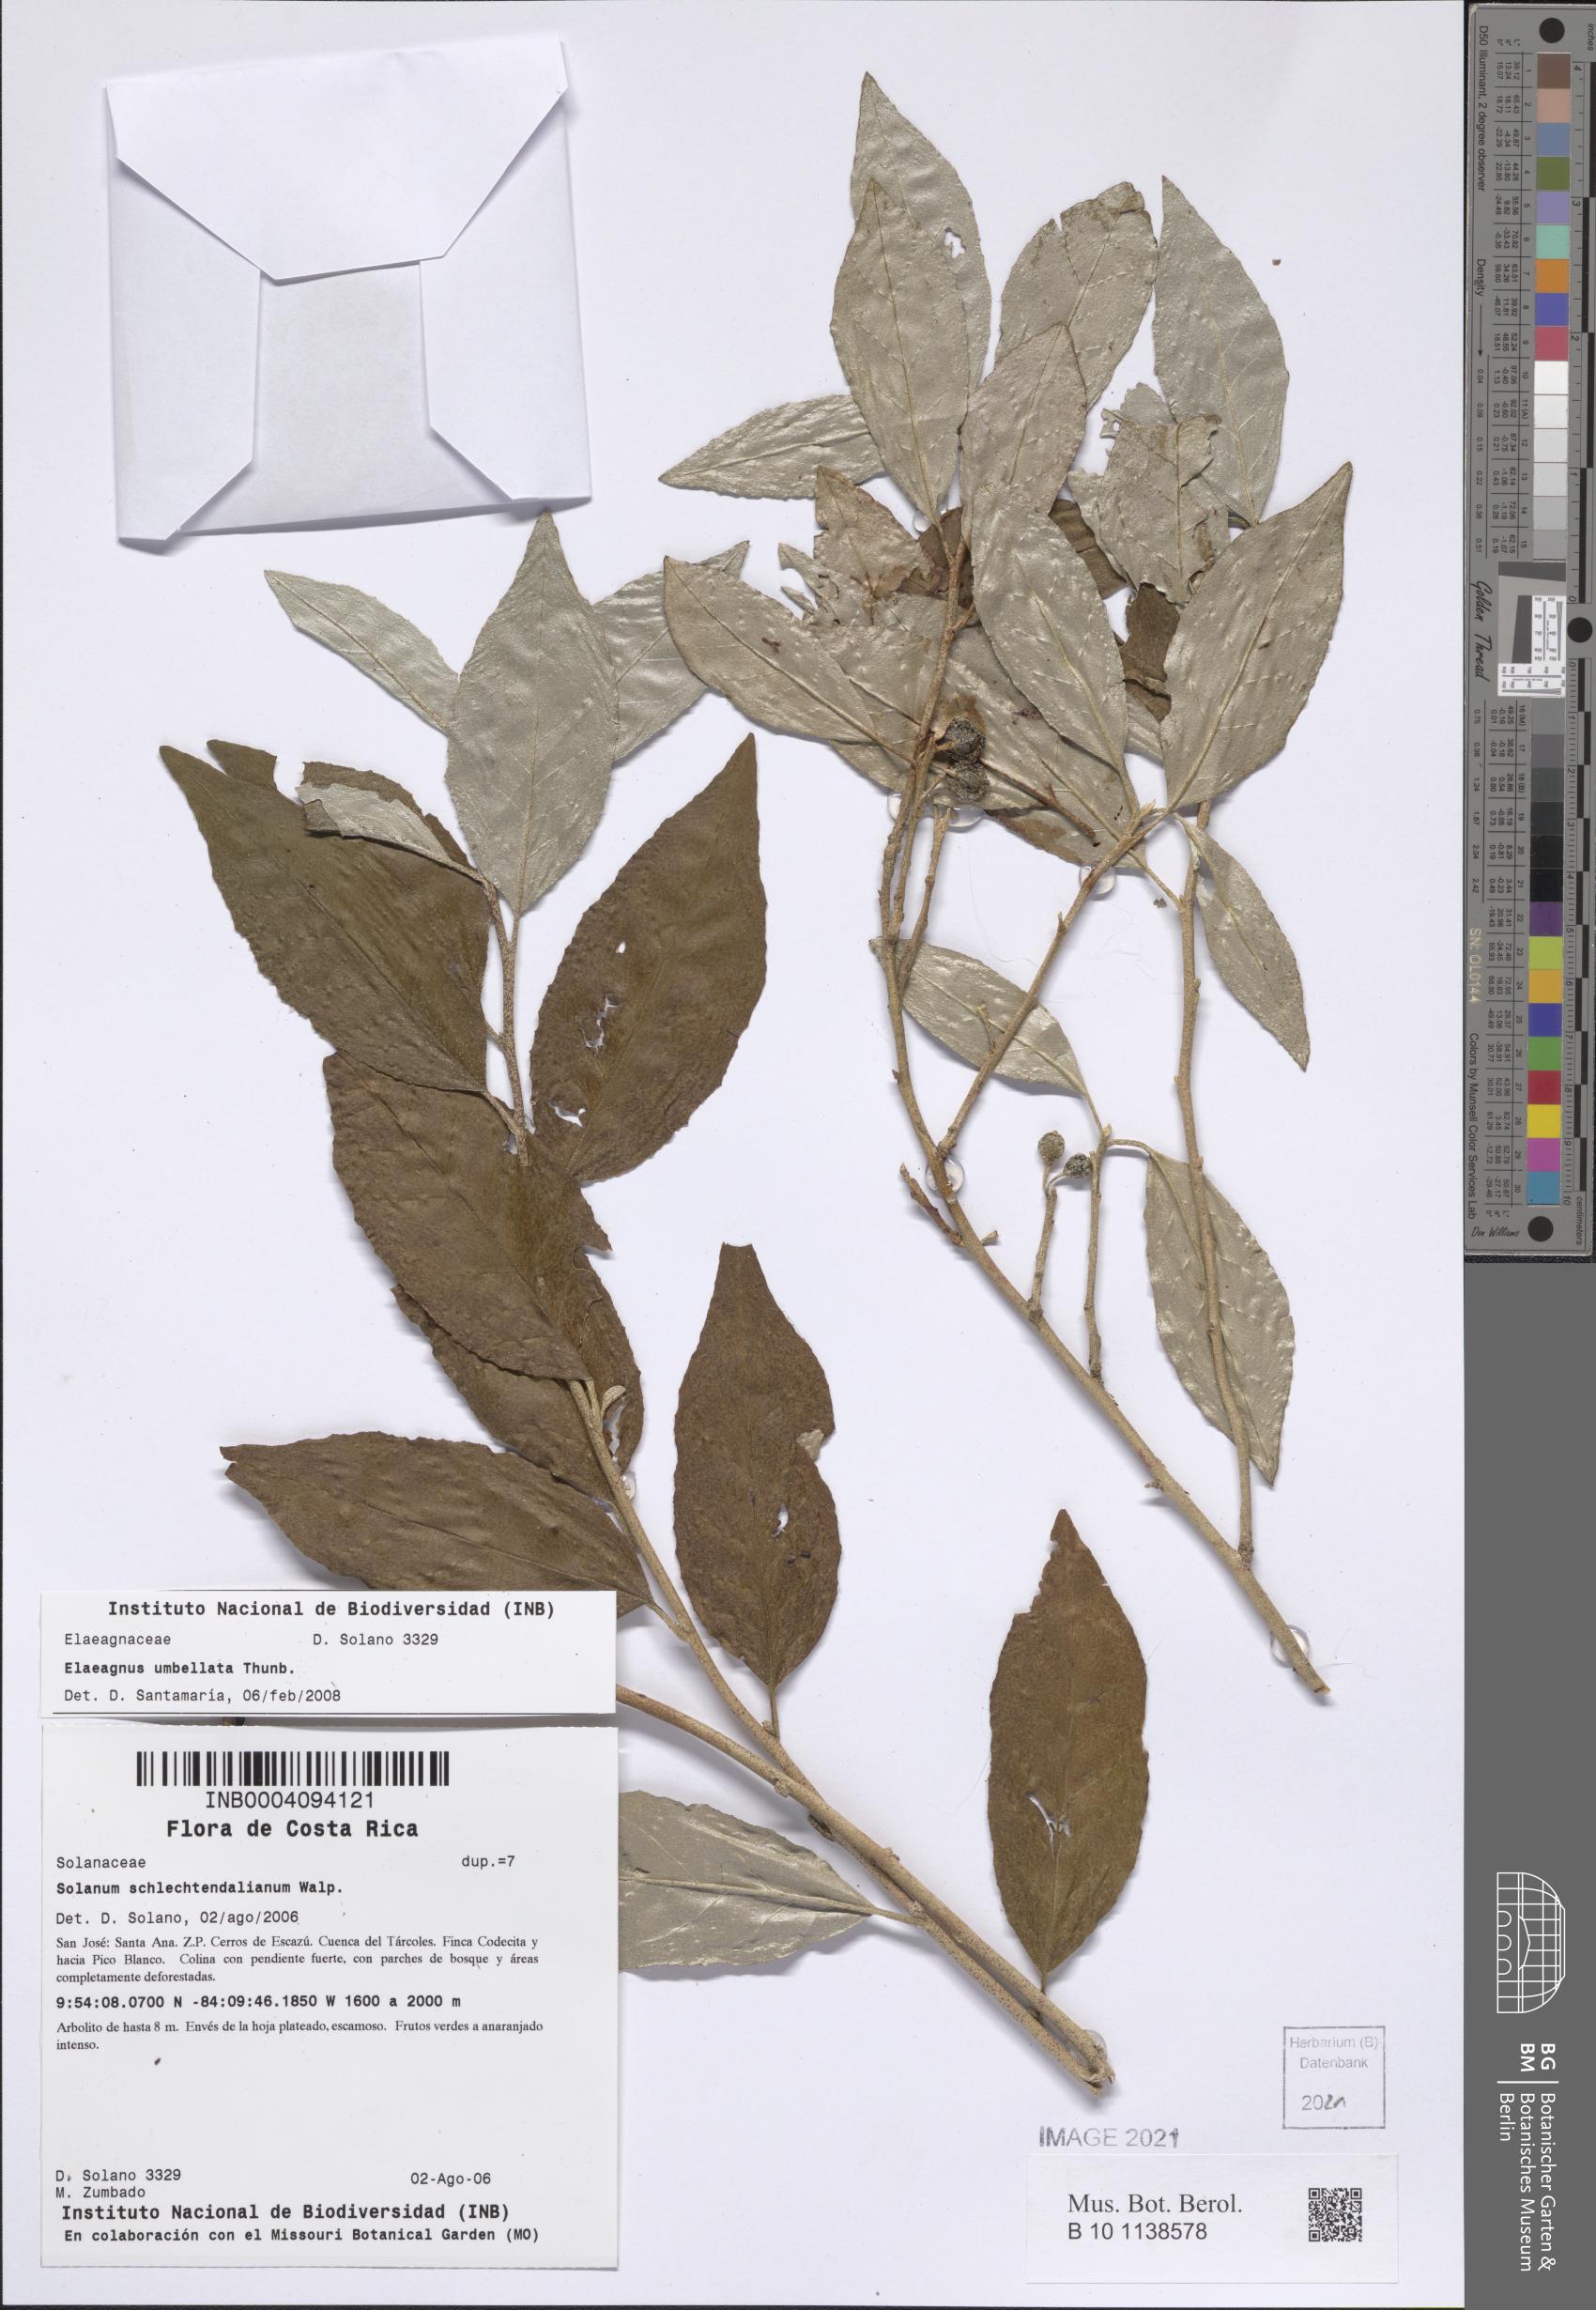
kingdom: Plantae
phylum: Tracheophyta
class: Magnoliopsida
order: Rosales
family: Elaeagnaceae
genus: Elaeagnus
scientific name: Elaeagnus umbellata
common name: Autumn olive
